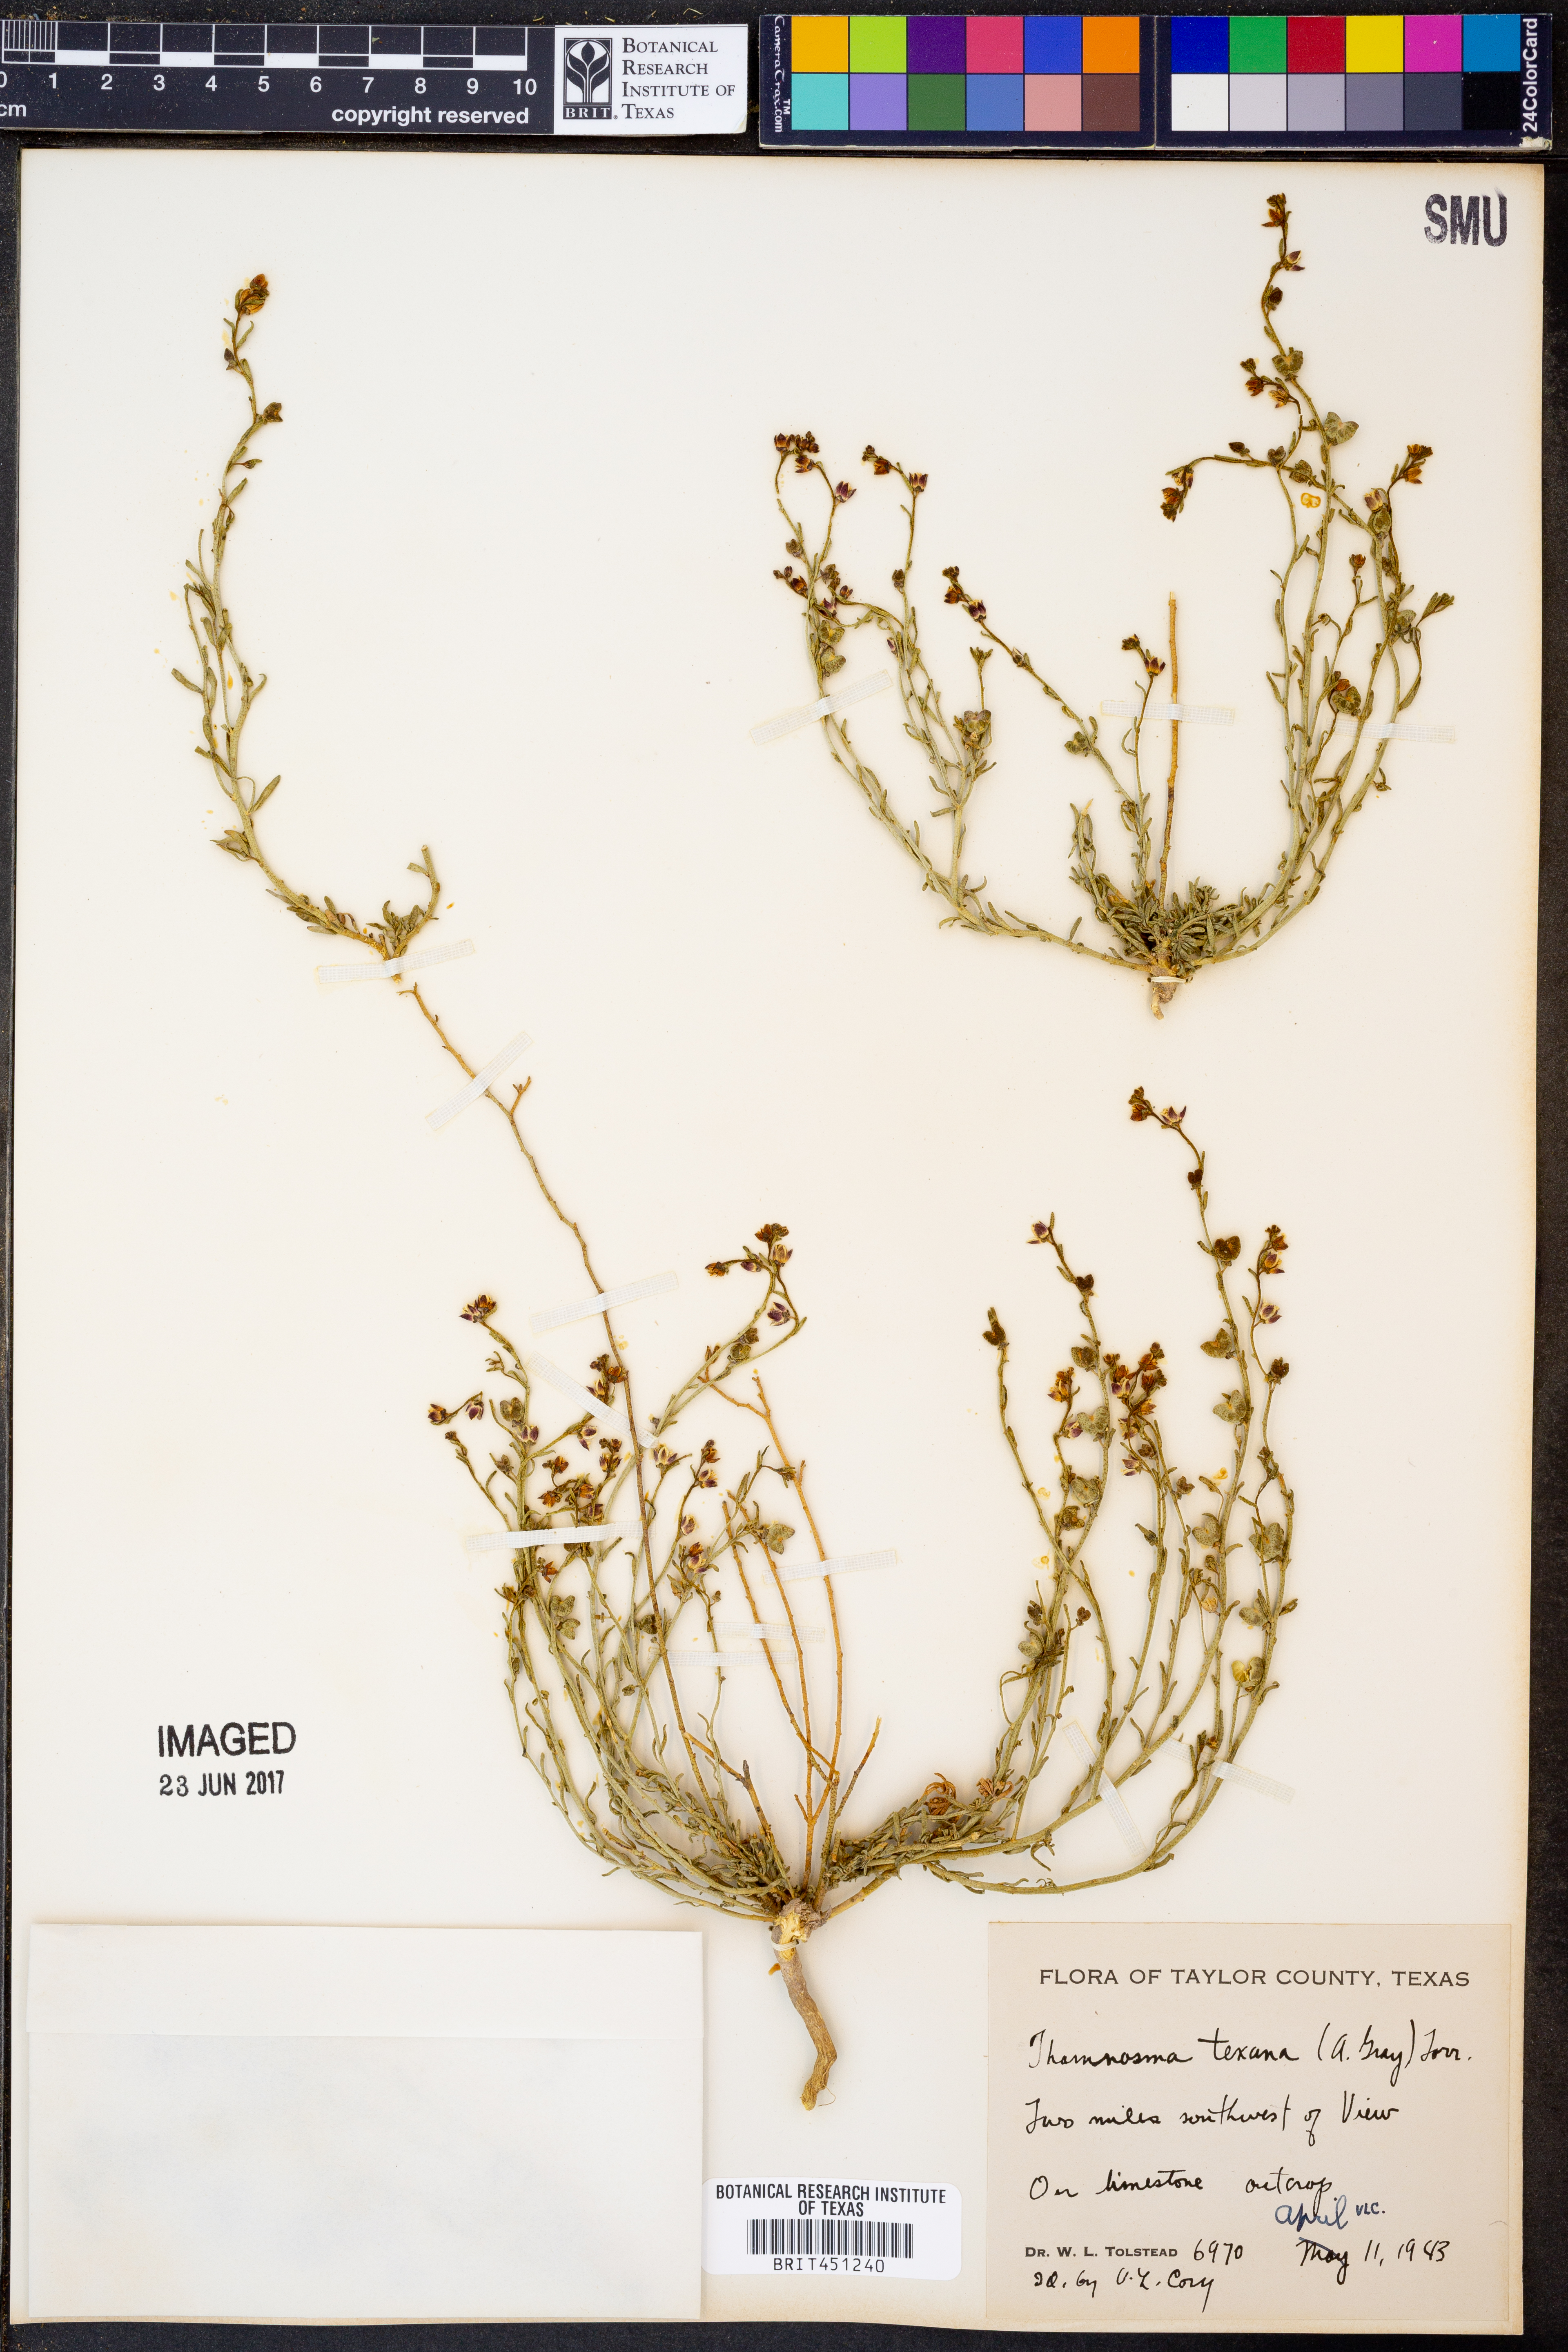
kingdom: Plantae
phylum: Tracheophyta
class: Magnoliopsida
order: Sapindales
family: Rutaceae
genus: Thamnosma
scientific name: Thamnosma texana
